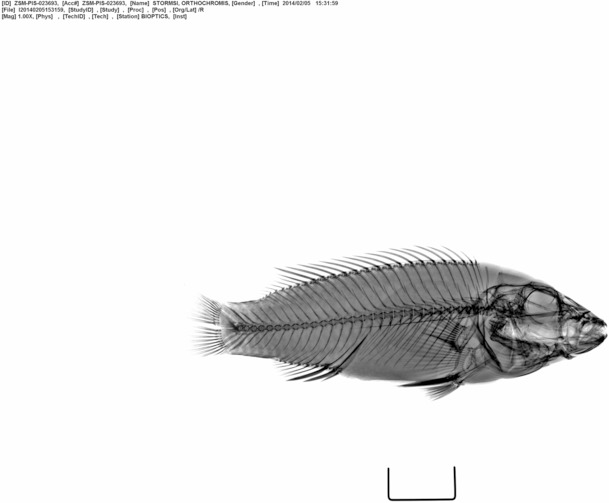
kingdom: Animalia
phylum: Chordata
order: Perciformes
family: Cichlidae
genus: Orthochromis
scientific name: Orthochromis stormsi
